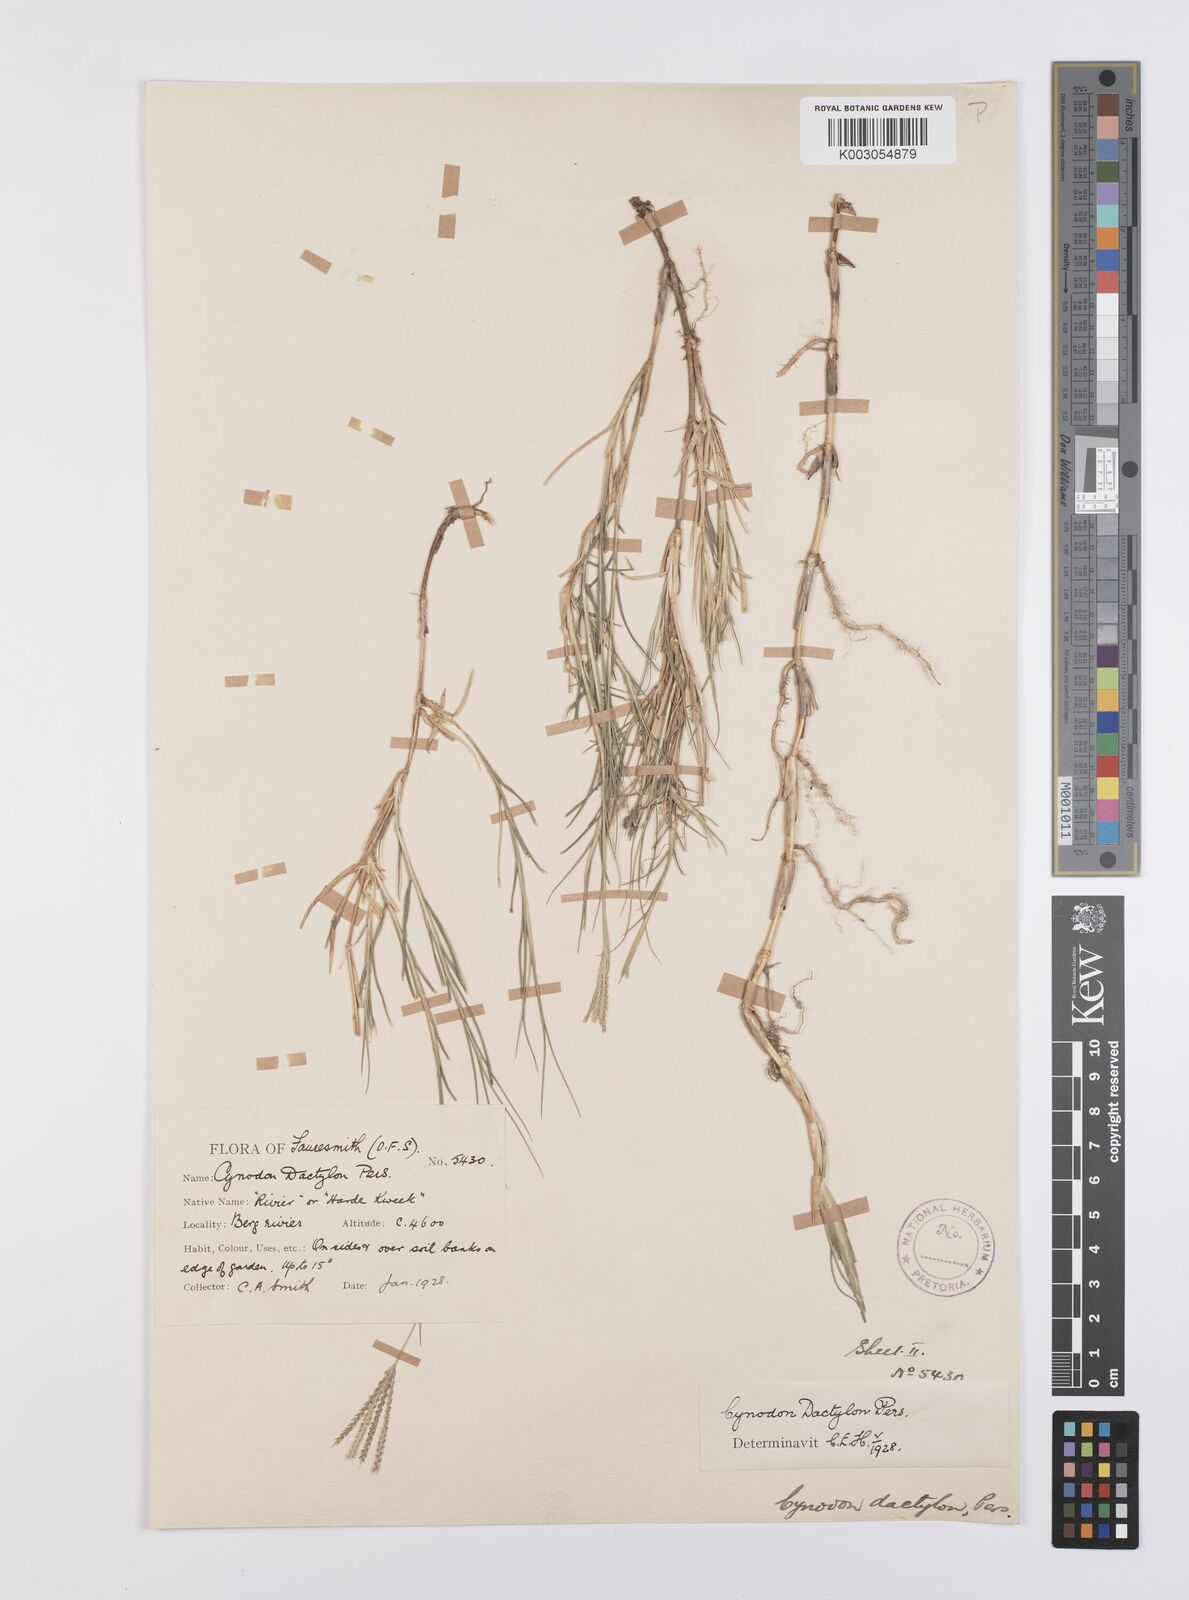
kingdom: Plantae
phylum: Tracheophyta
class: Liliopsida
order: Poales
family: Poaceae
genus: Cynodon
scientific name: Cynodon dactylon
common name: Bermuda grass
